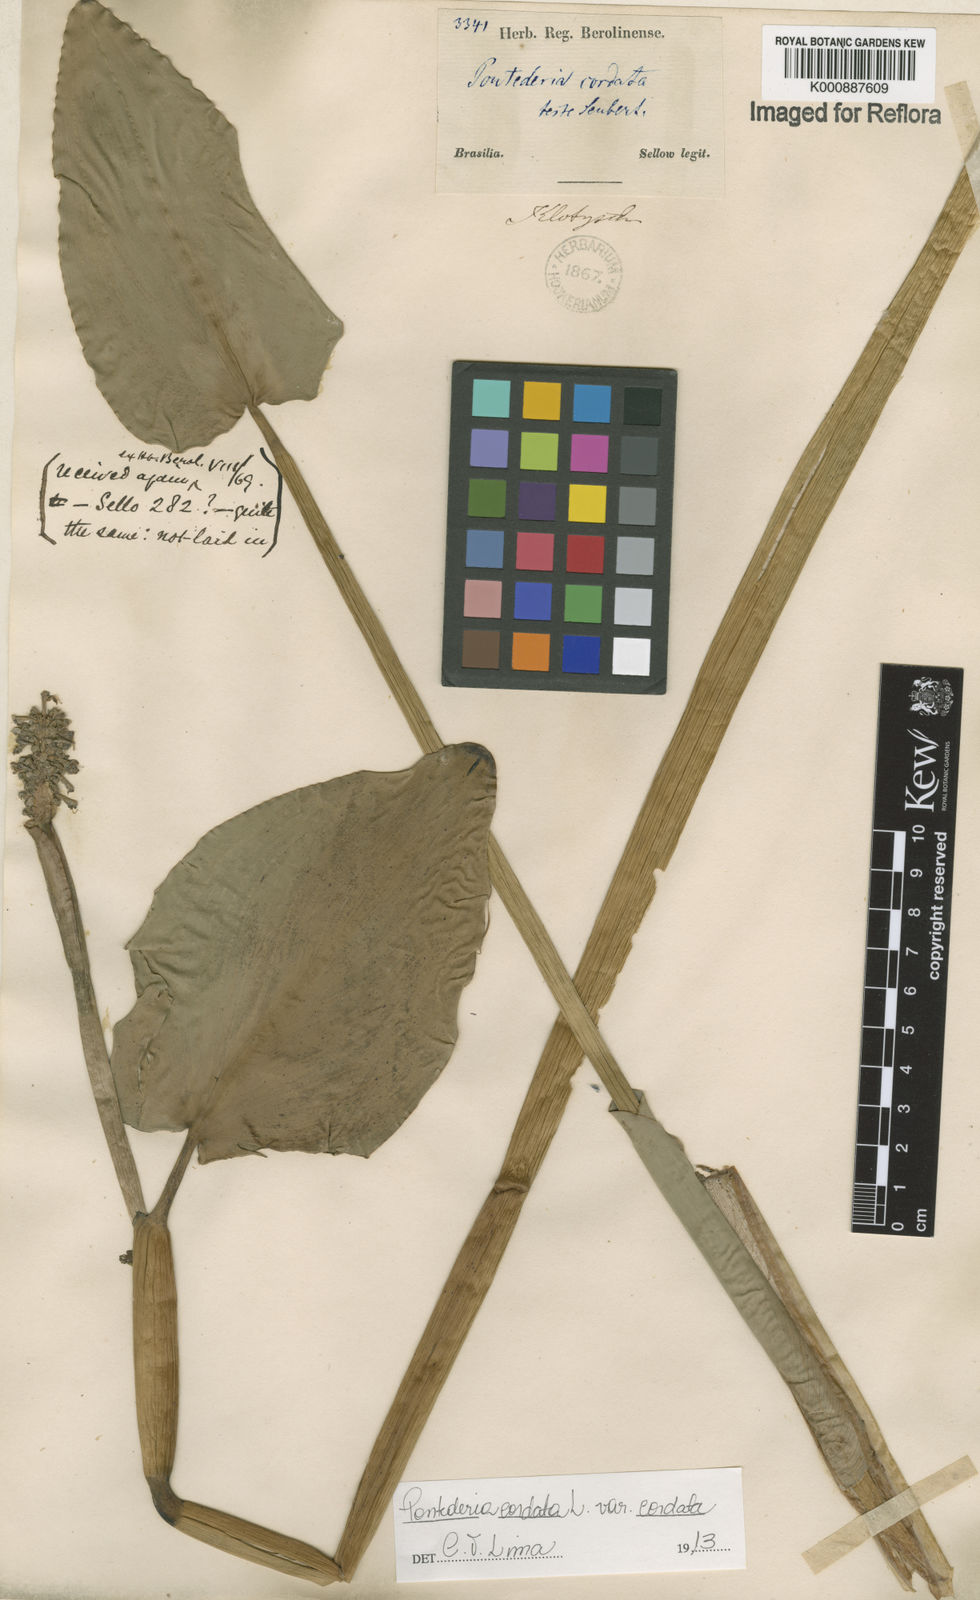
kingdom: Plantae
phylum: Tracheophyta
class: Liliopsida
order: Commelinales
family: Pontederiaceae
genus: Pontederia
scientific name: Pontederia cordata
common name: Pickerelweed
